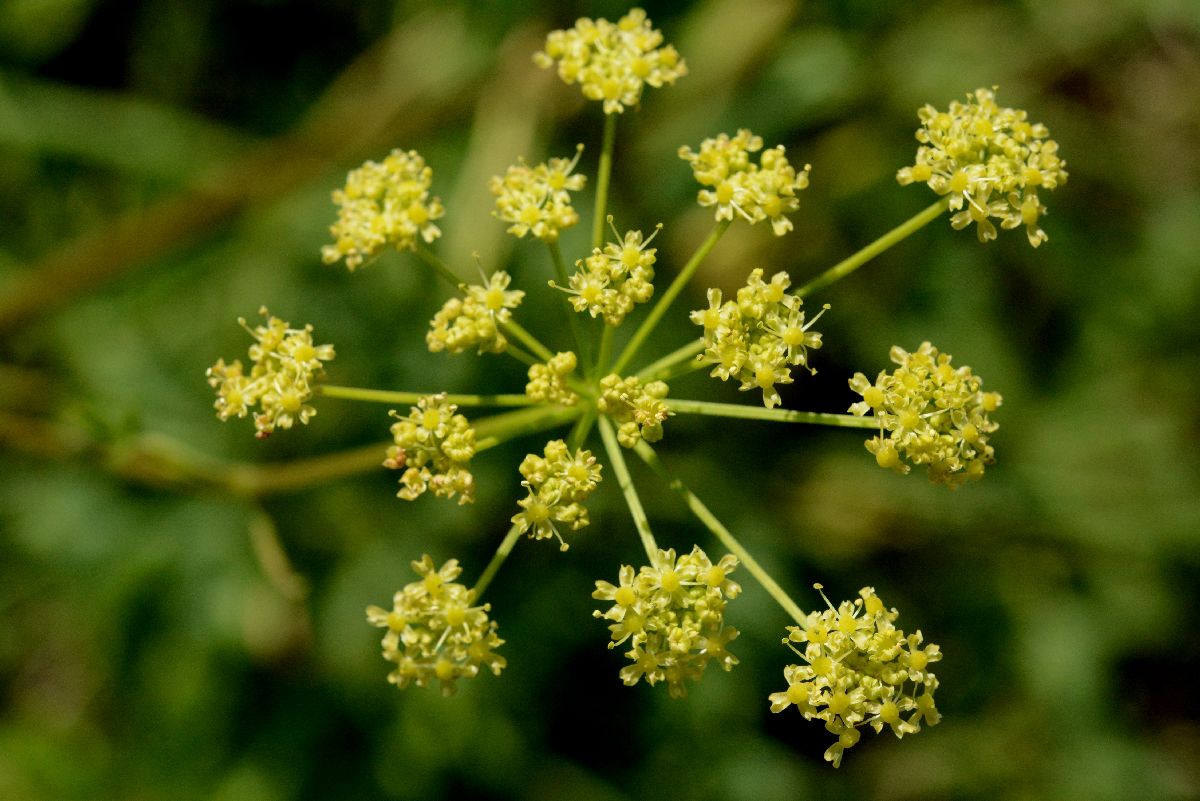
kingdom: Plantae
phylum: Tracheophyta
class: Magnoliopsida
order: Apiales
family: Apiaceae
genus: Heracleum
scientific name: Heracleum sphondylium
